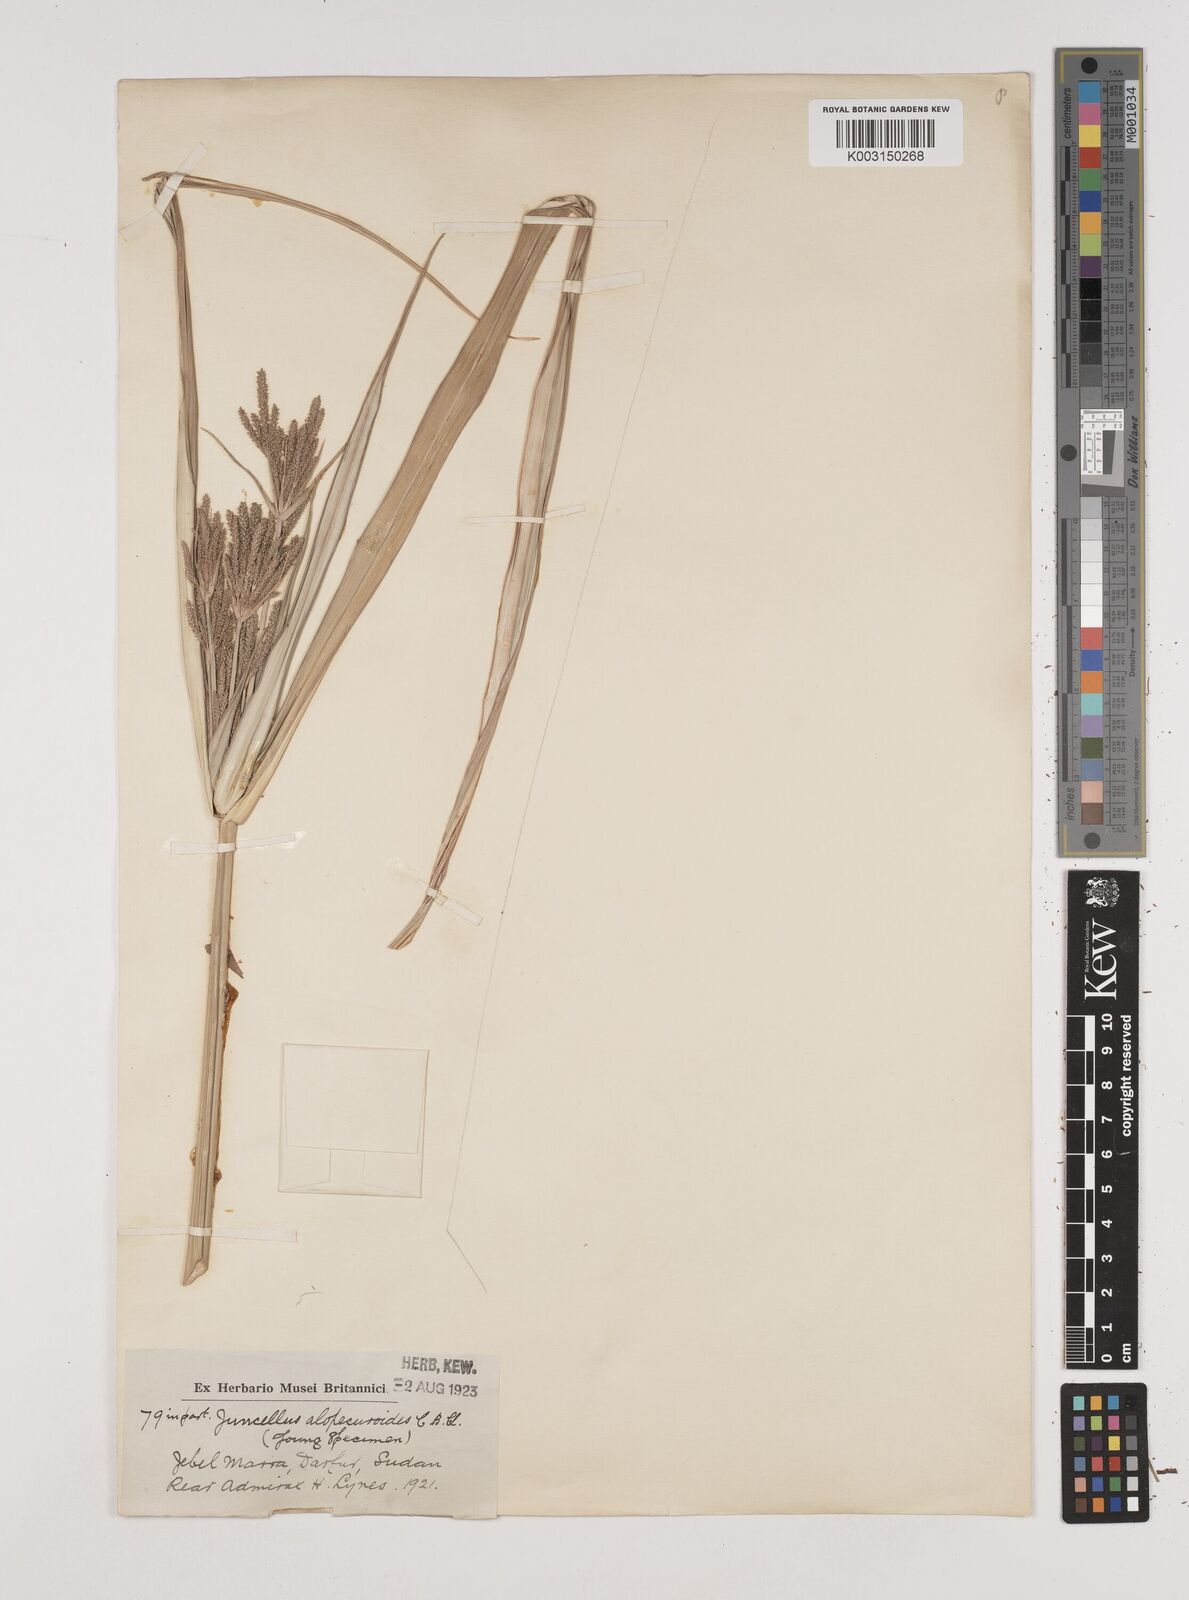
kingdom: Plantae
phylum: Tracheophyta
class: Liliopsida
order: Poales
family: Cyperaceae
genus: Cyperus
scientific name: Cyperus alopecuroides
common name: Foxtail flatsedge
